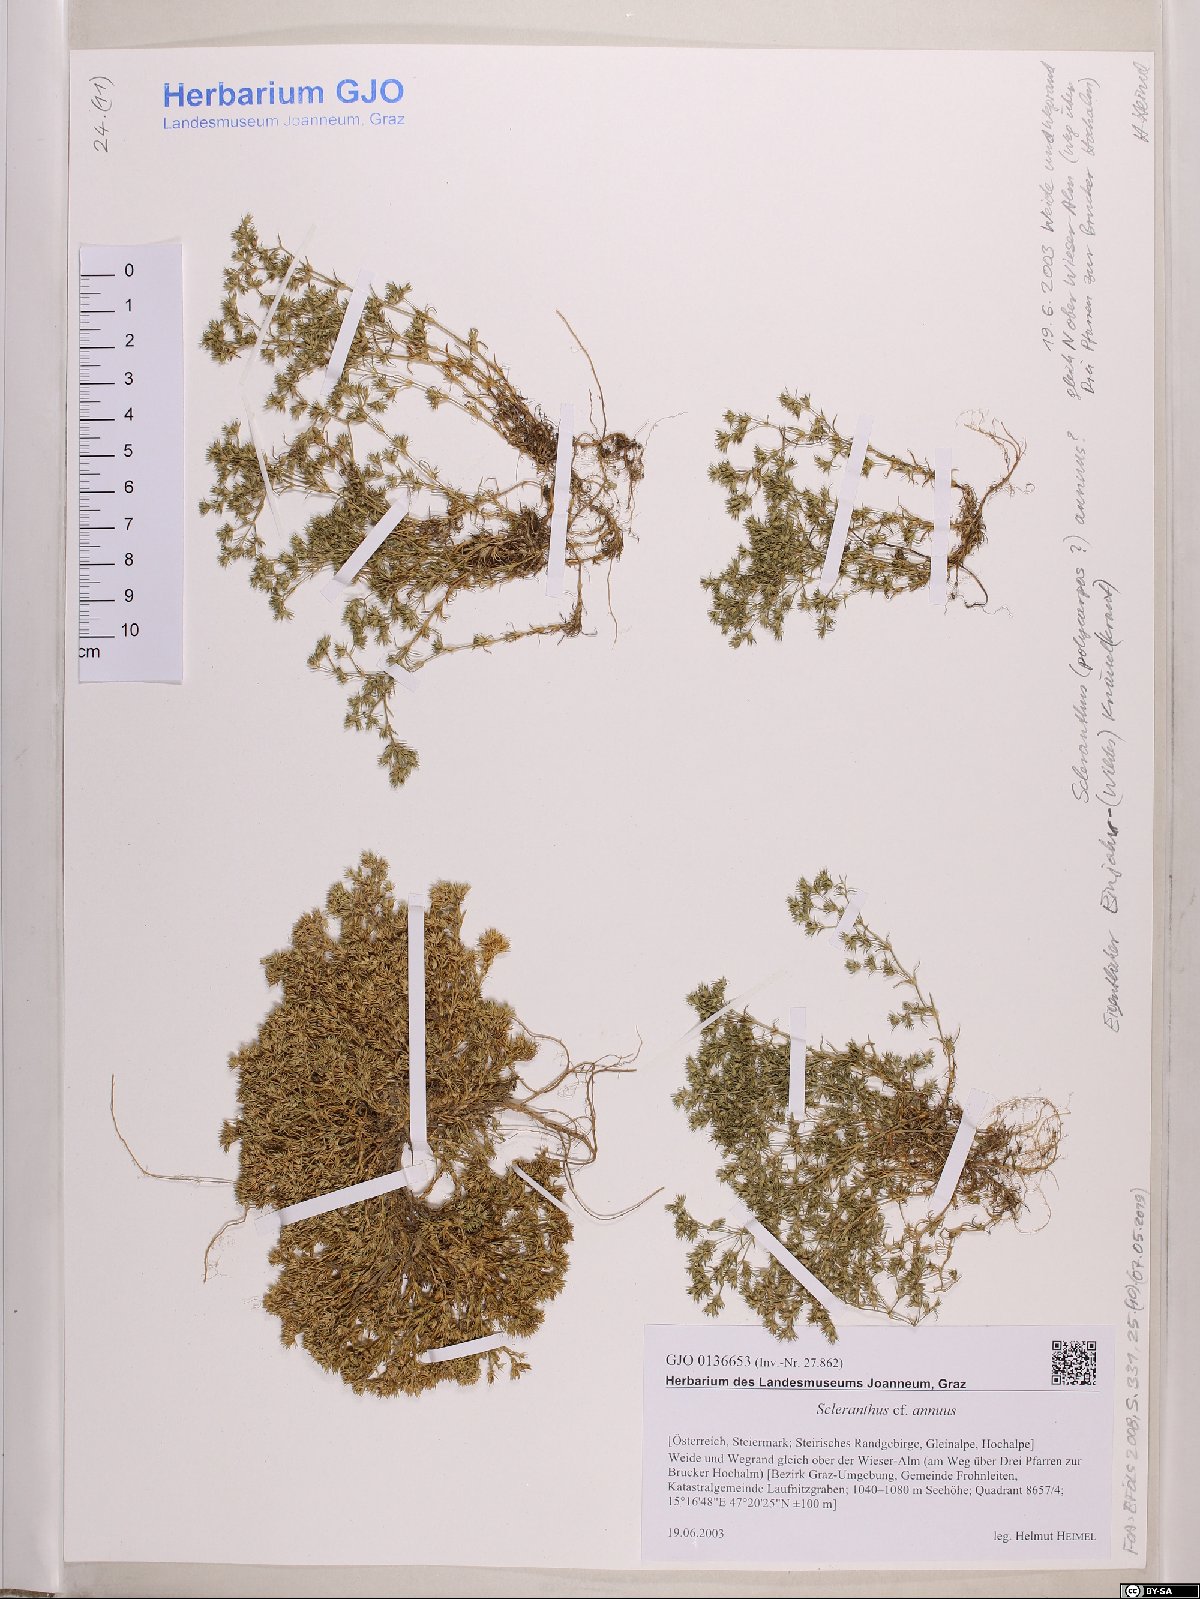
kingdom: Plantae
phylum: Tracheophyta
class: Magnoliopsida
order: Caryophyllales
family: Caryophyllaceae
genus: Scleranthus
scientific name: Scleranthus annuus
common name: Annual knawel
